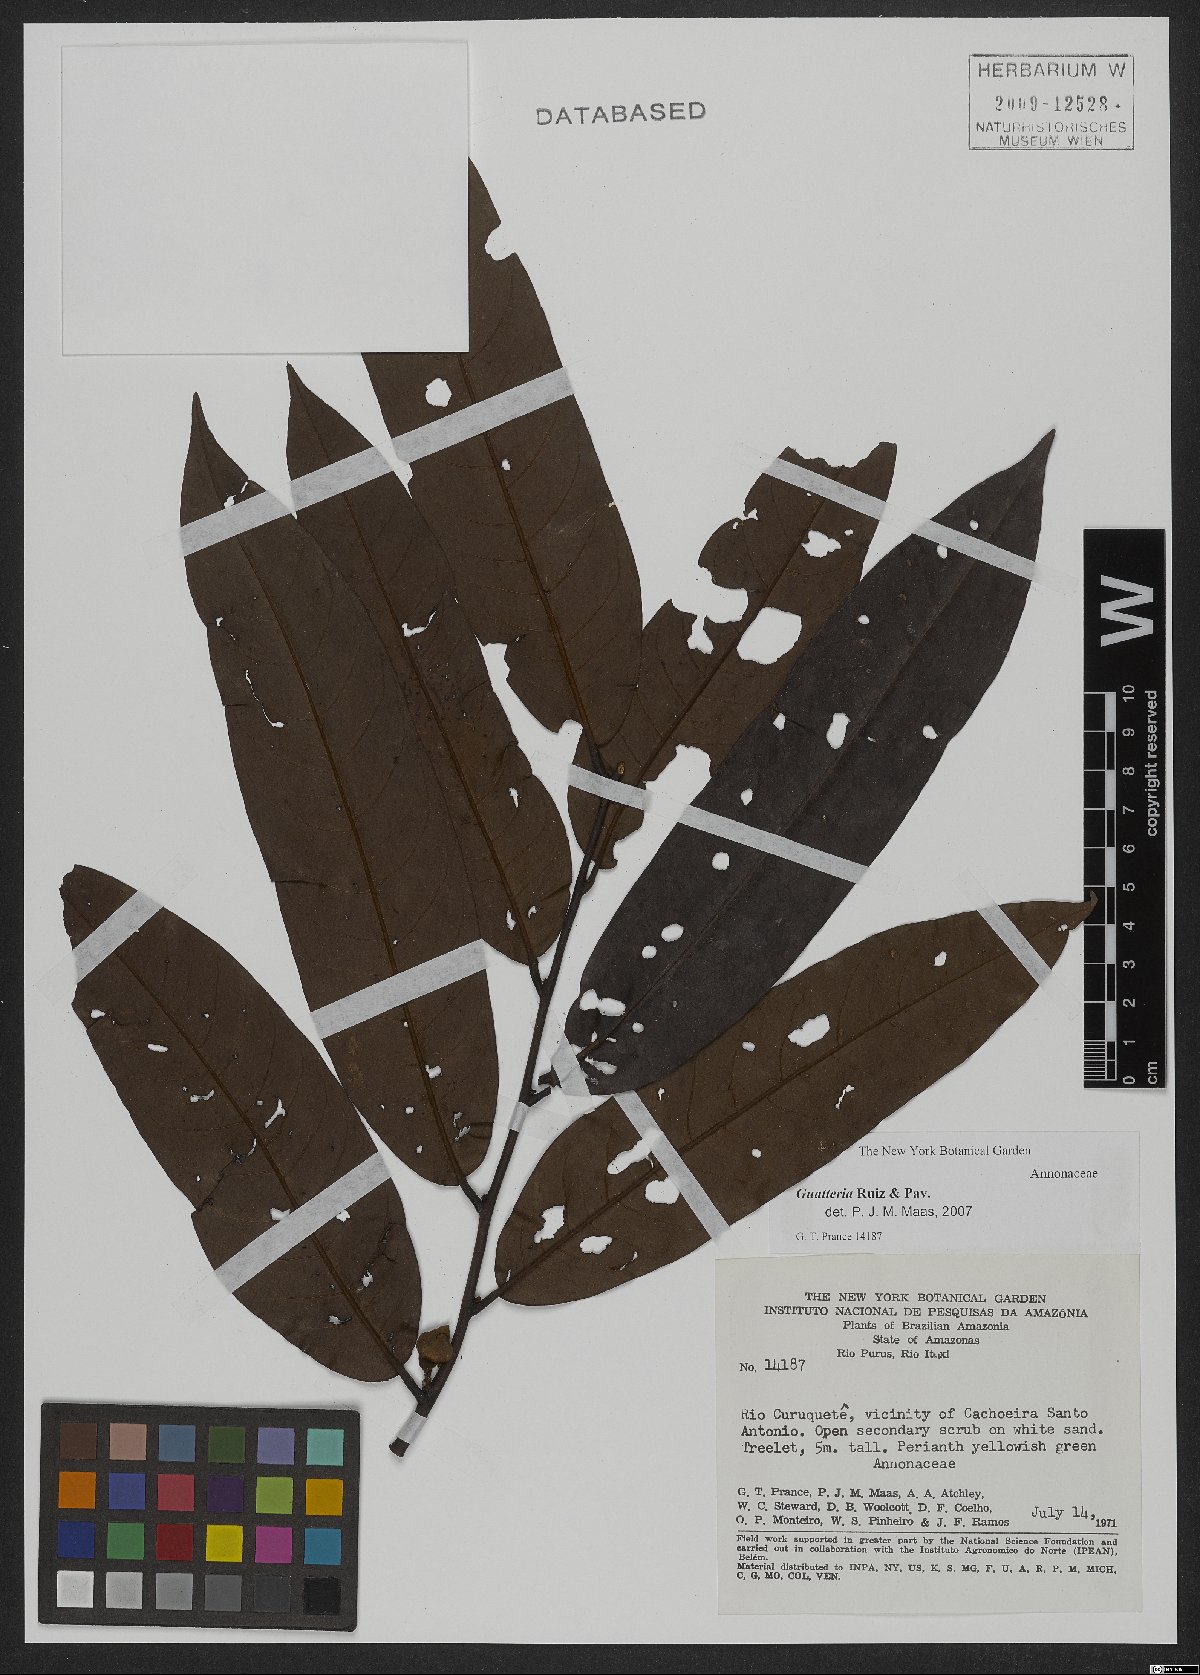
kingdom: Plantae
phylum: Tracheophyta
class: Magnoliopsida
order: Magnoliales
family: Annonaceae
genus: Guatteria
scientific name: Guatteria
